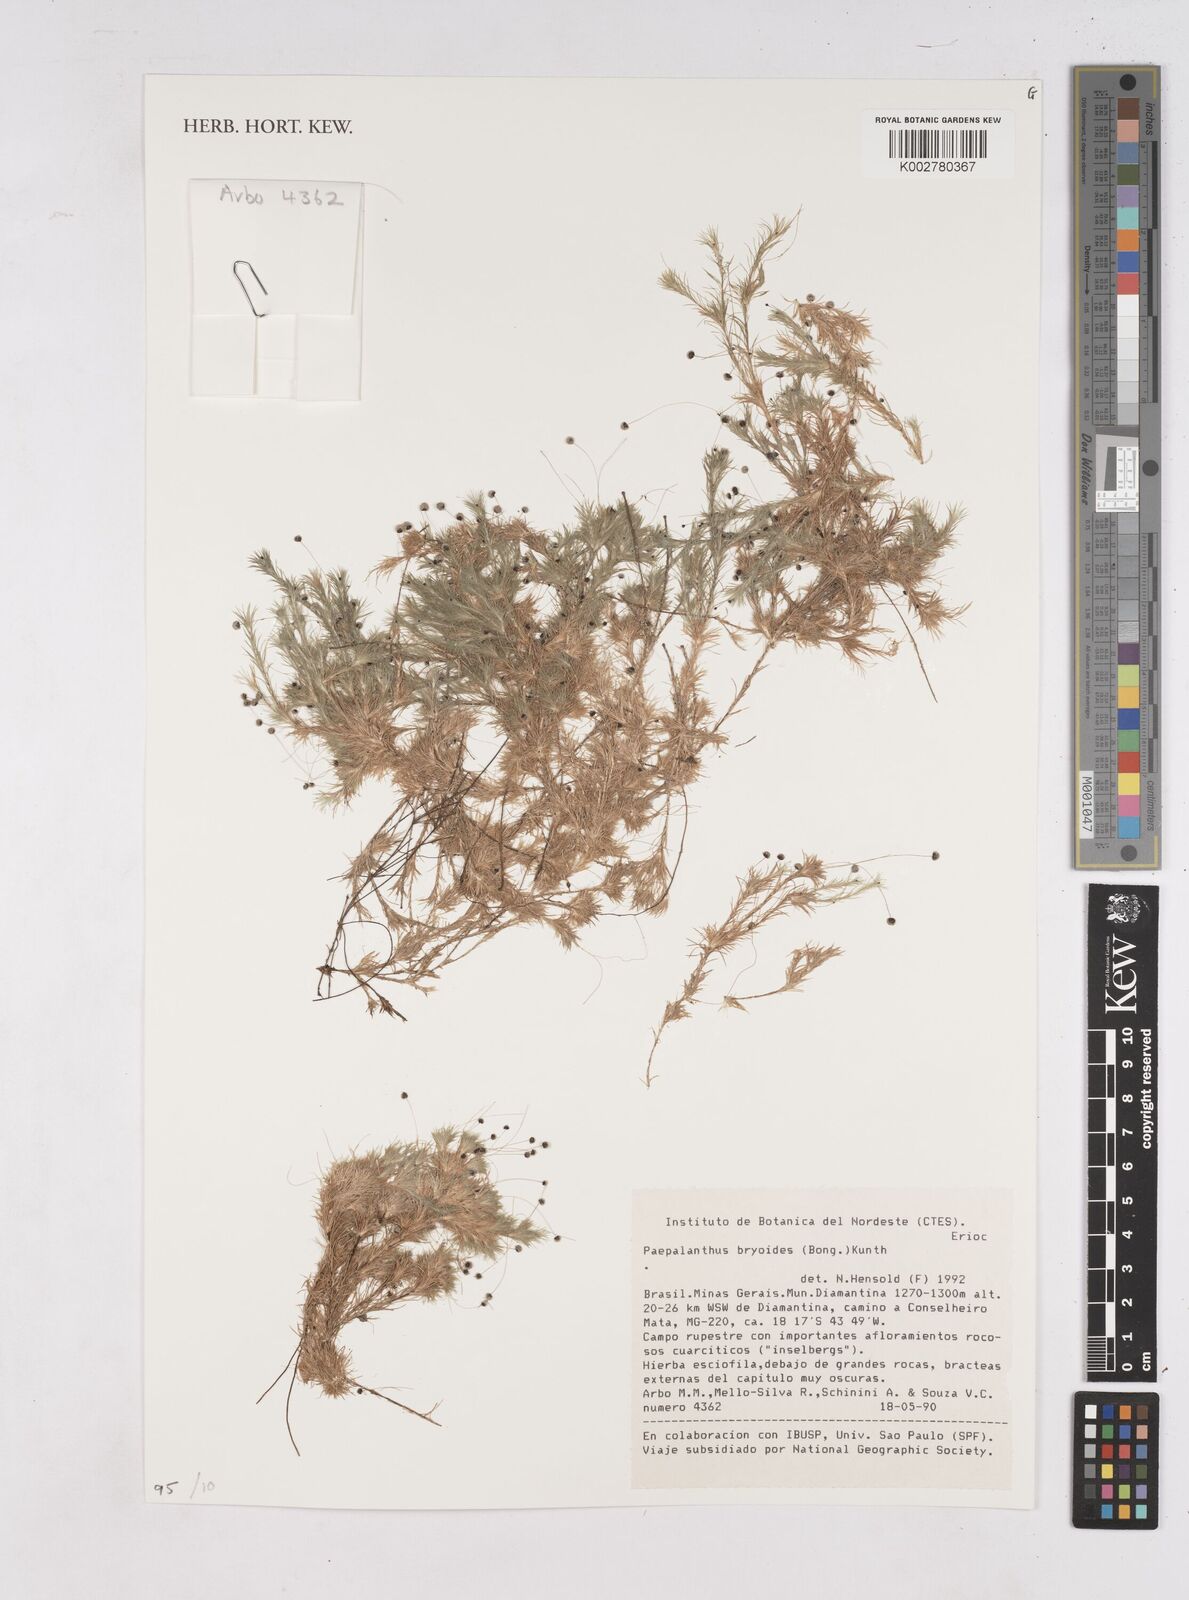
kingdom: Plantae
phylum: Tracheophyta
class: Liliopsida
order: Poales
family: Eriocaulaceae
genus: Paepalanthus
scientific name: Paepalanthus bryoides
